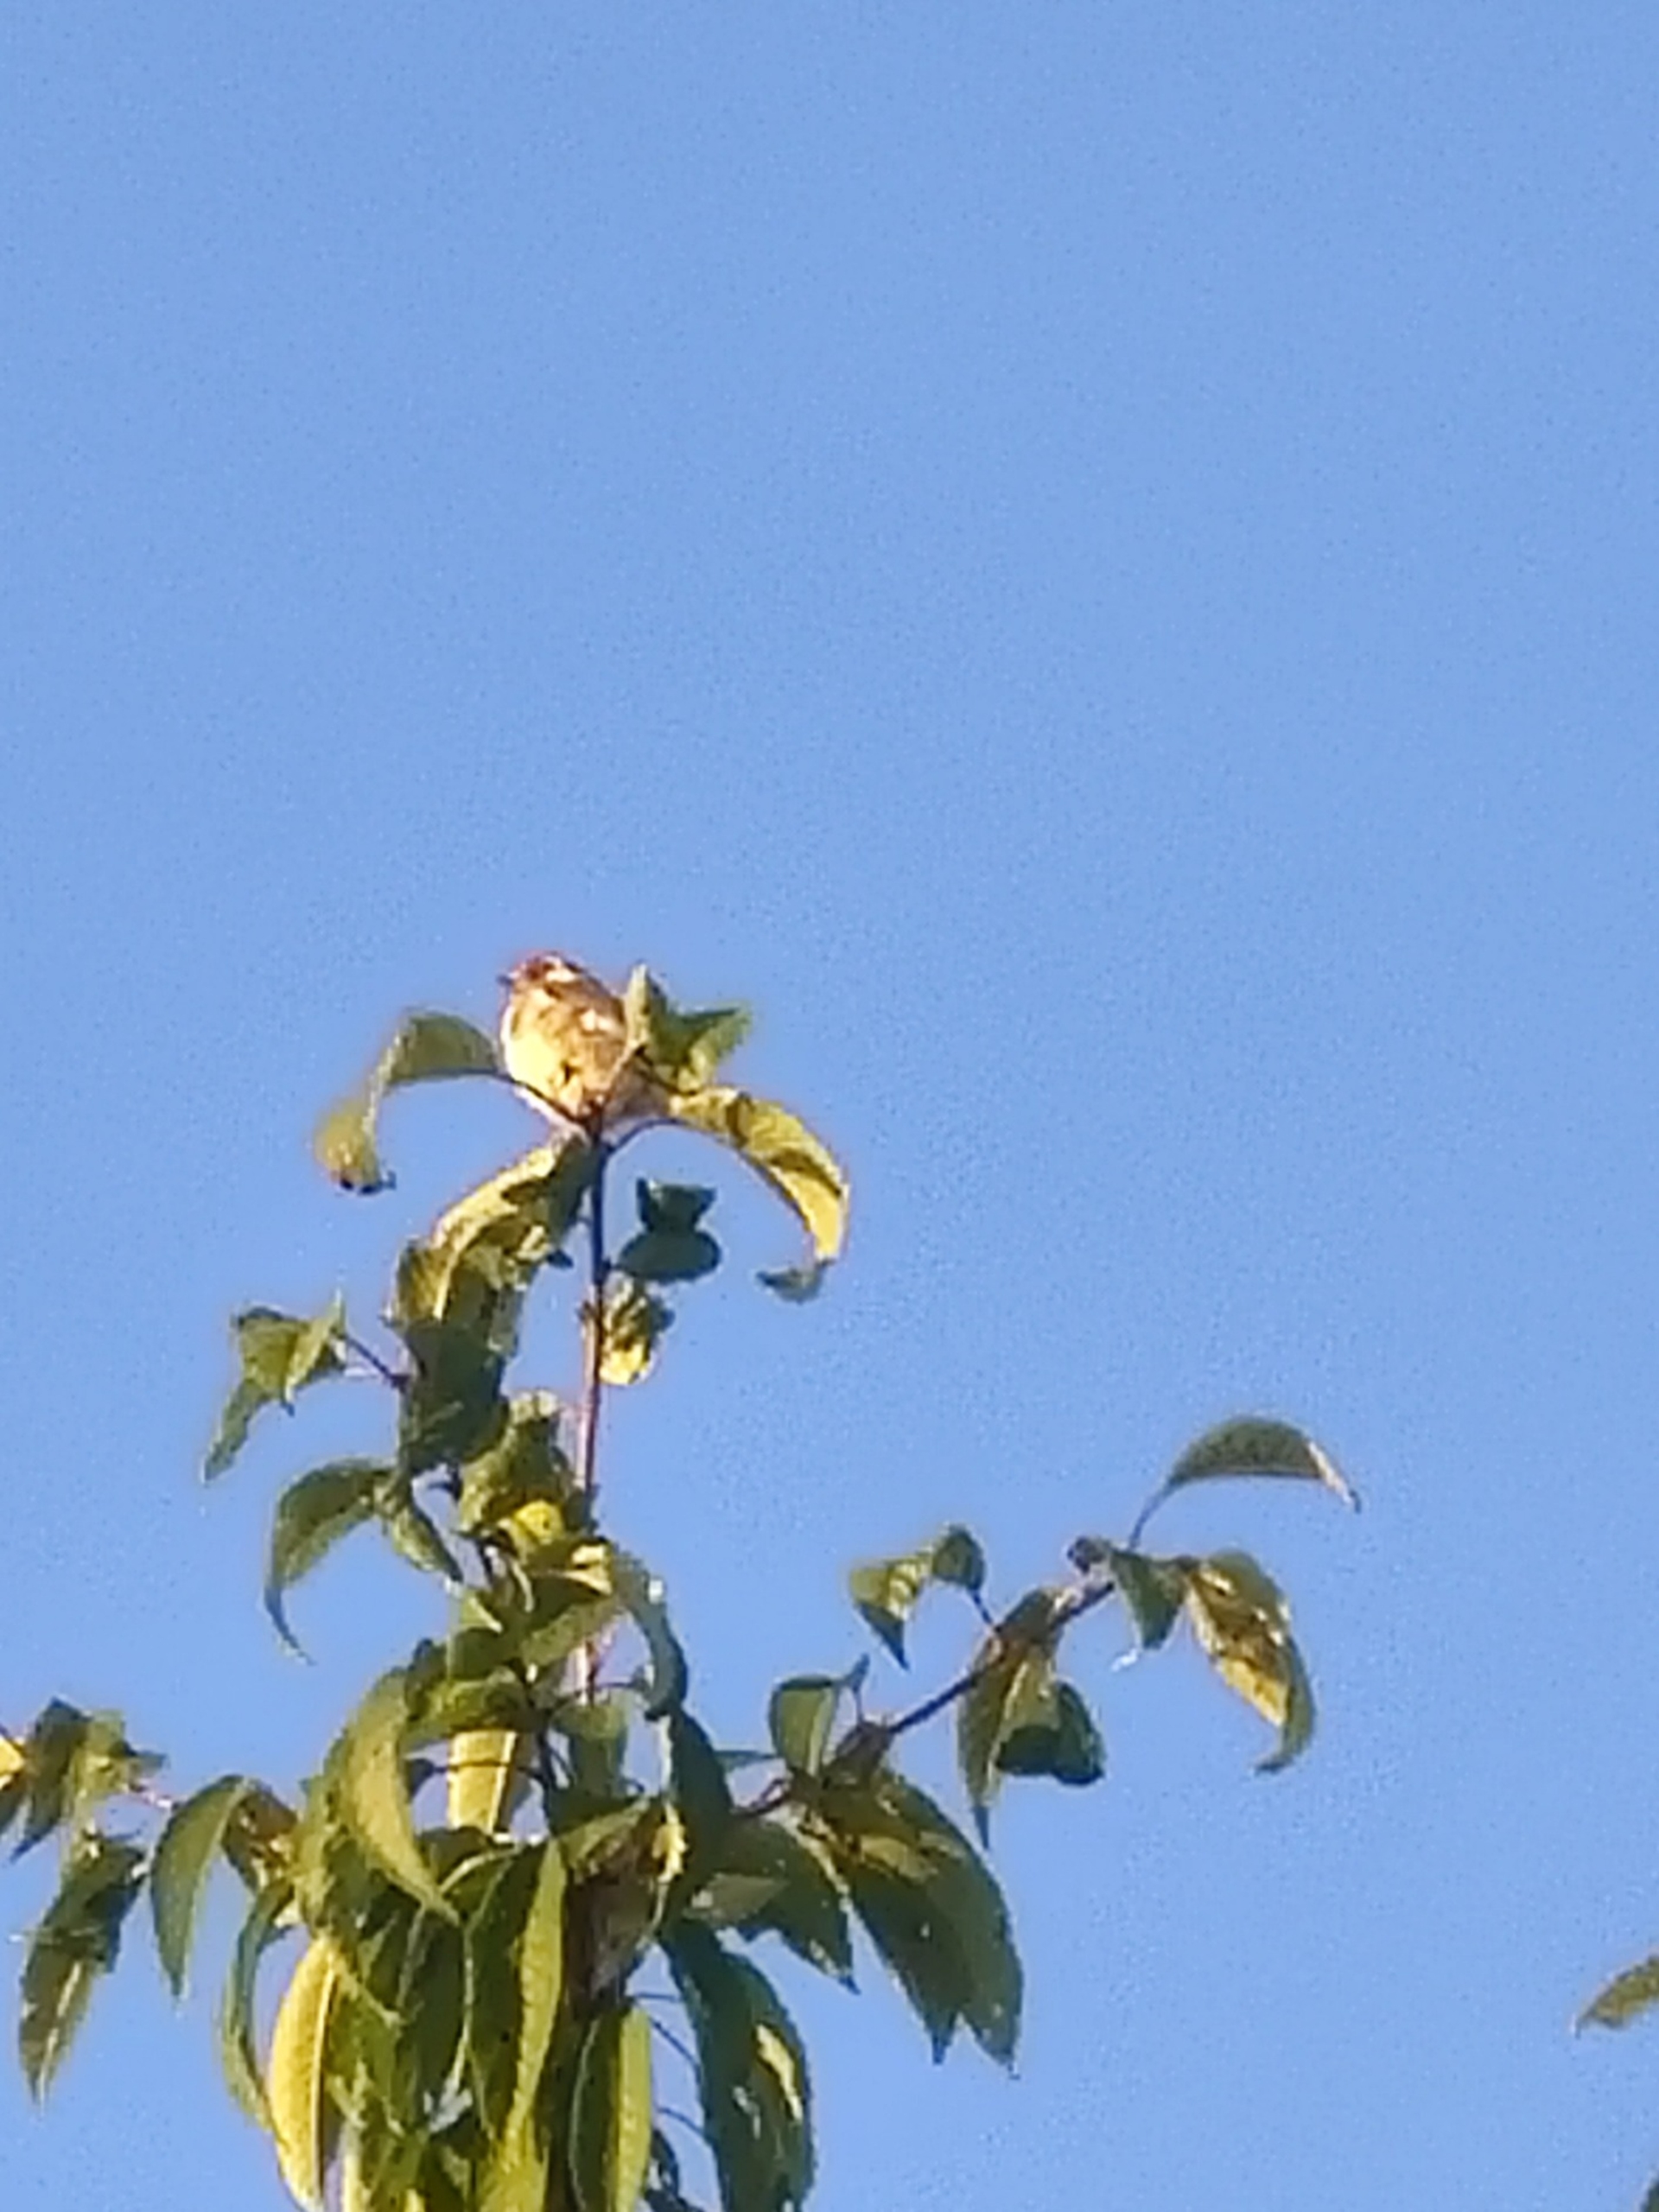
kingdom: Animalia
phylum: Chordata
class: Aves
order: Passeriformes
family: Fringillidae
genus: Carduelis
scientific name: Carduelis carduelis
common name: Stillits
